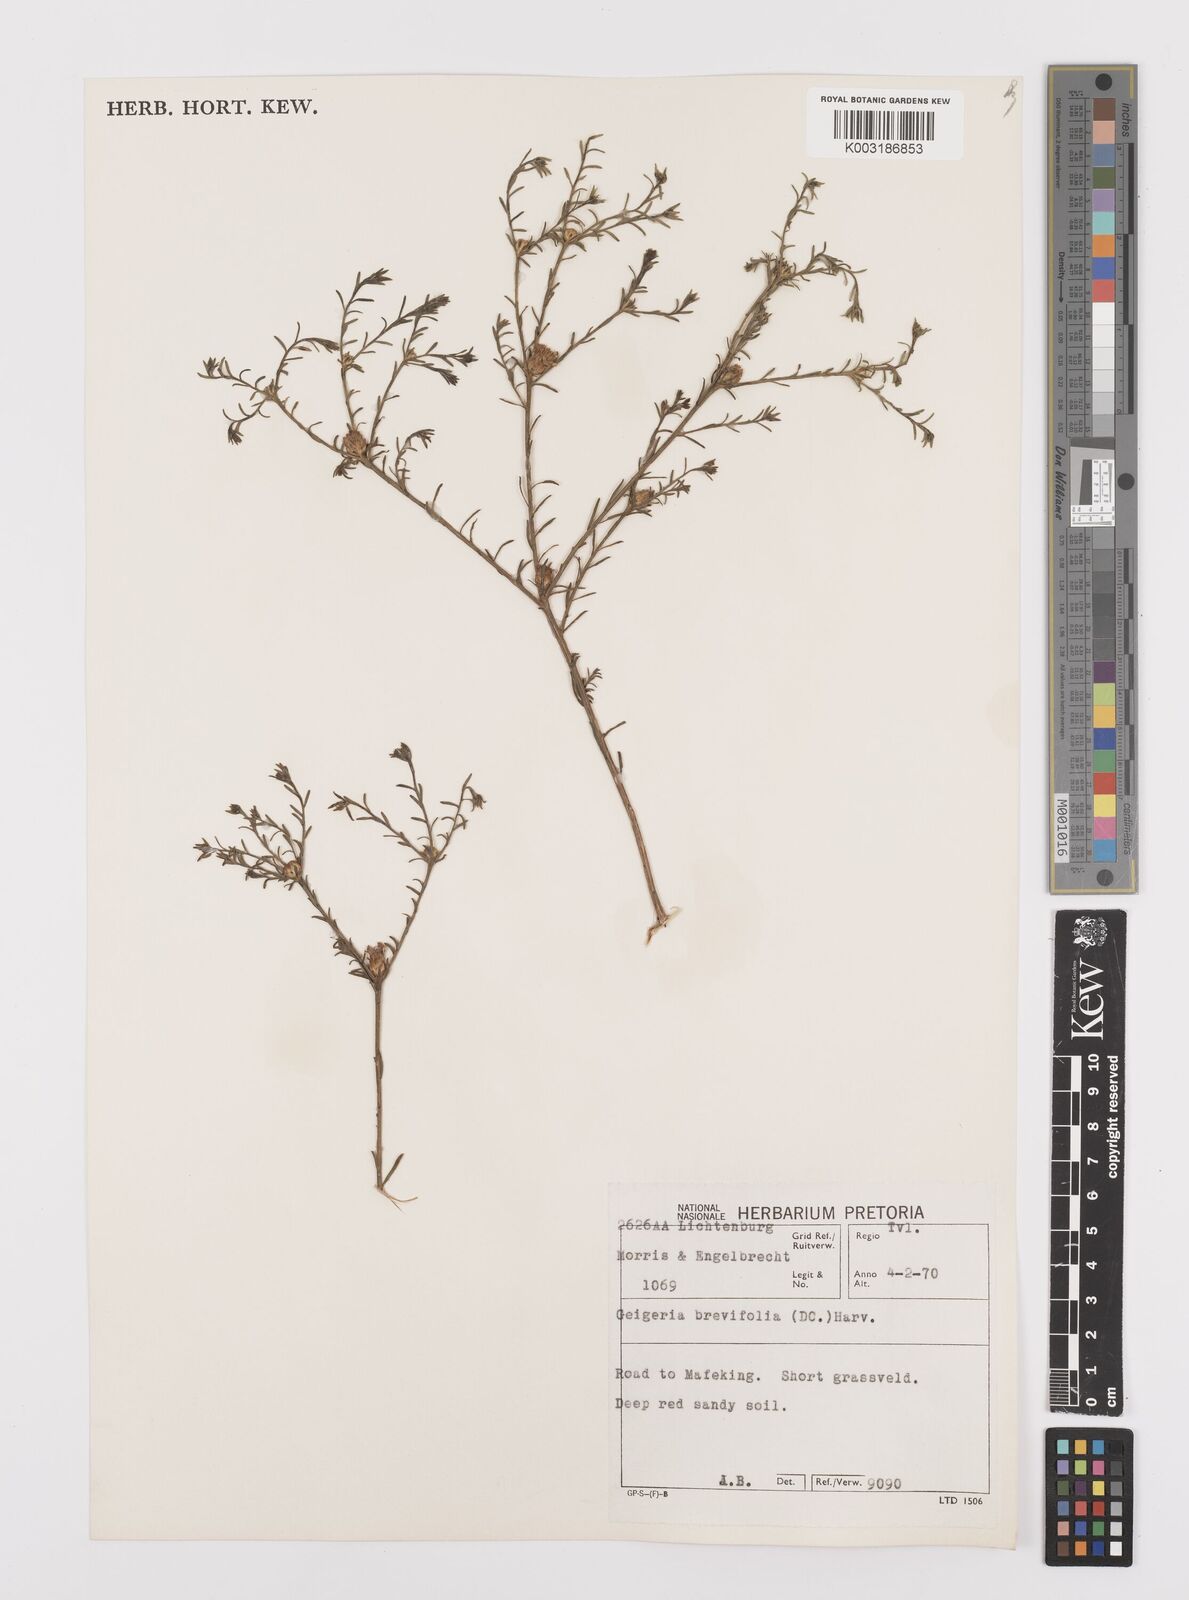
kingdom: Plantae
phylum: Tracheophyta
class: Magnoliopsida
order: Asterales
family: Asteraceae
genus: Geigeria
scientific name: Geigeria brevifolia
